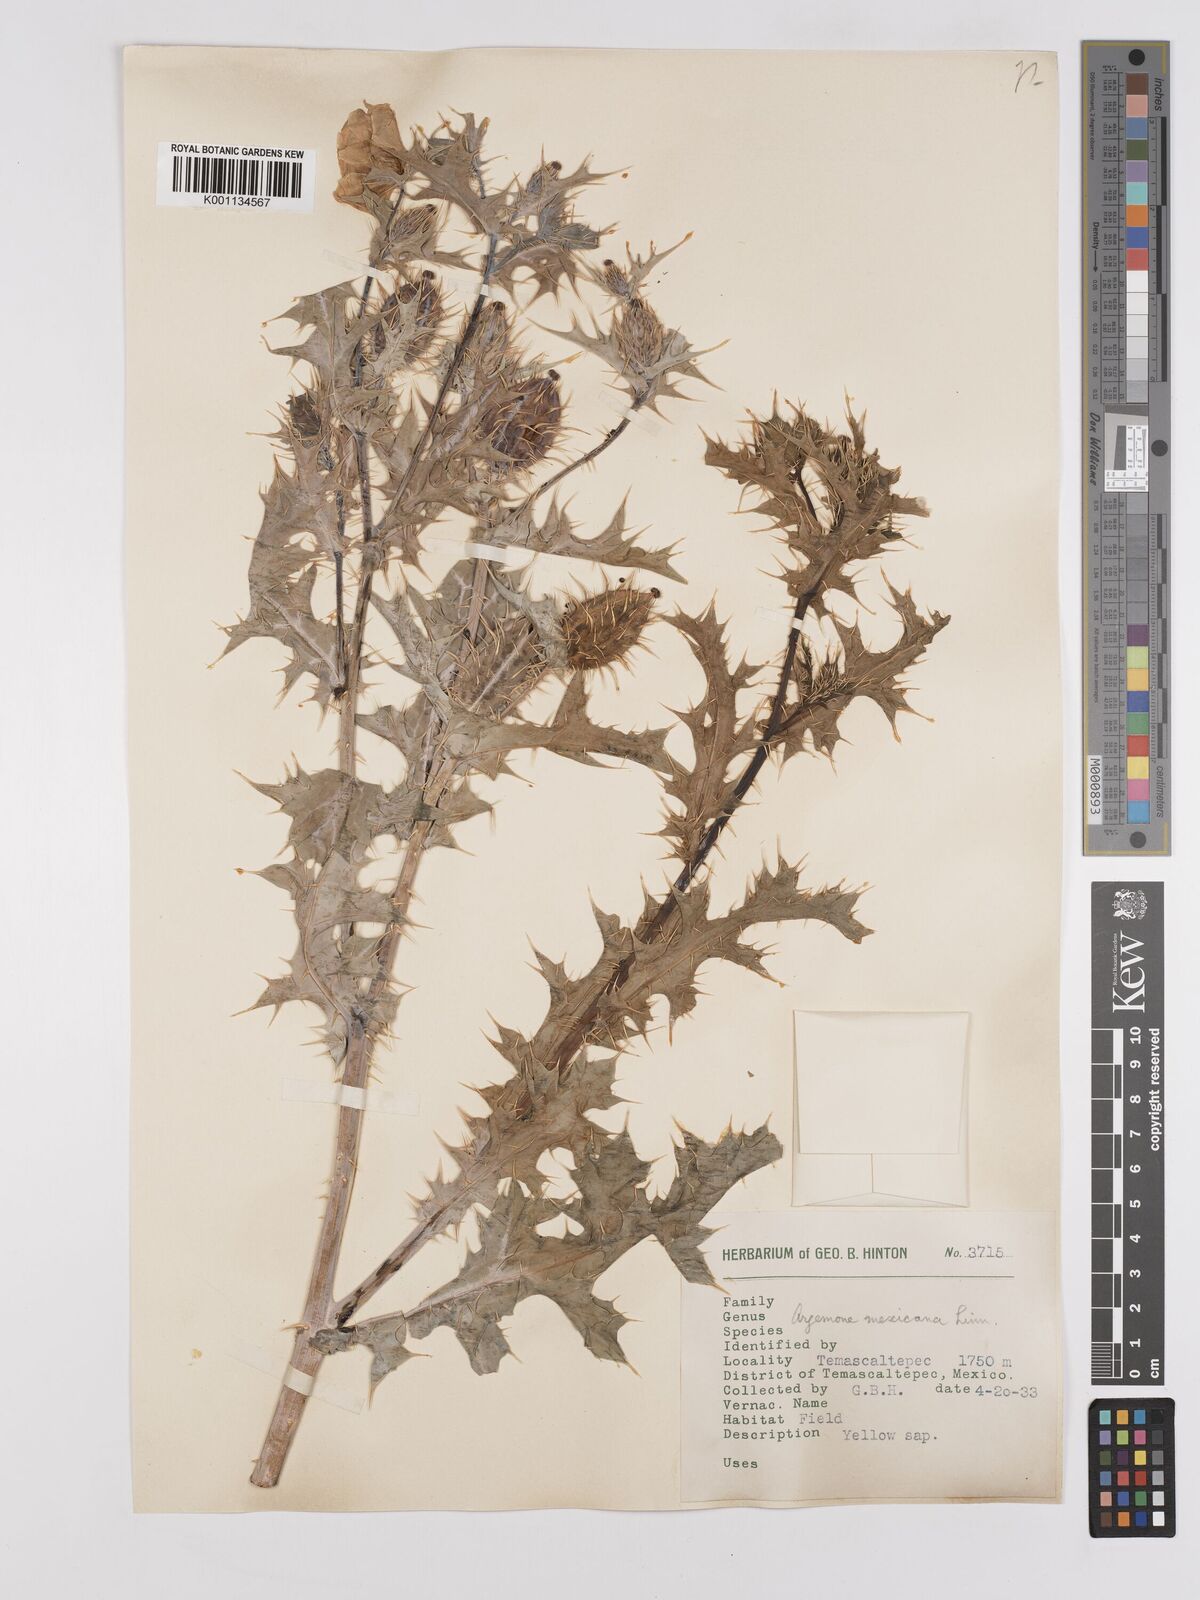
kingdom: Plantae
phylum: Tracheophyta
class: Magnoliopsida
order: Ranunculales
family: Papaveraceae
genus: Argemone
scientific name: Argemone mexicana
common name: Mexican poppy
